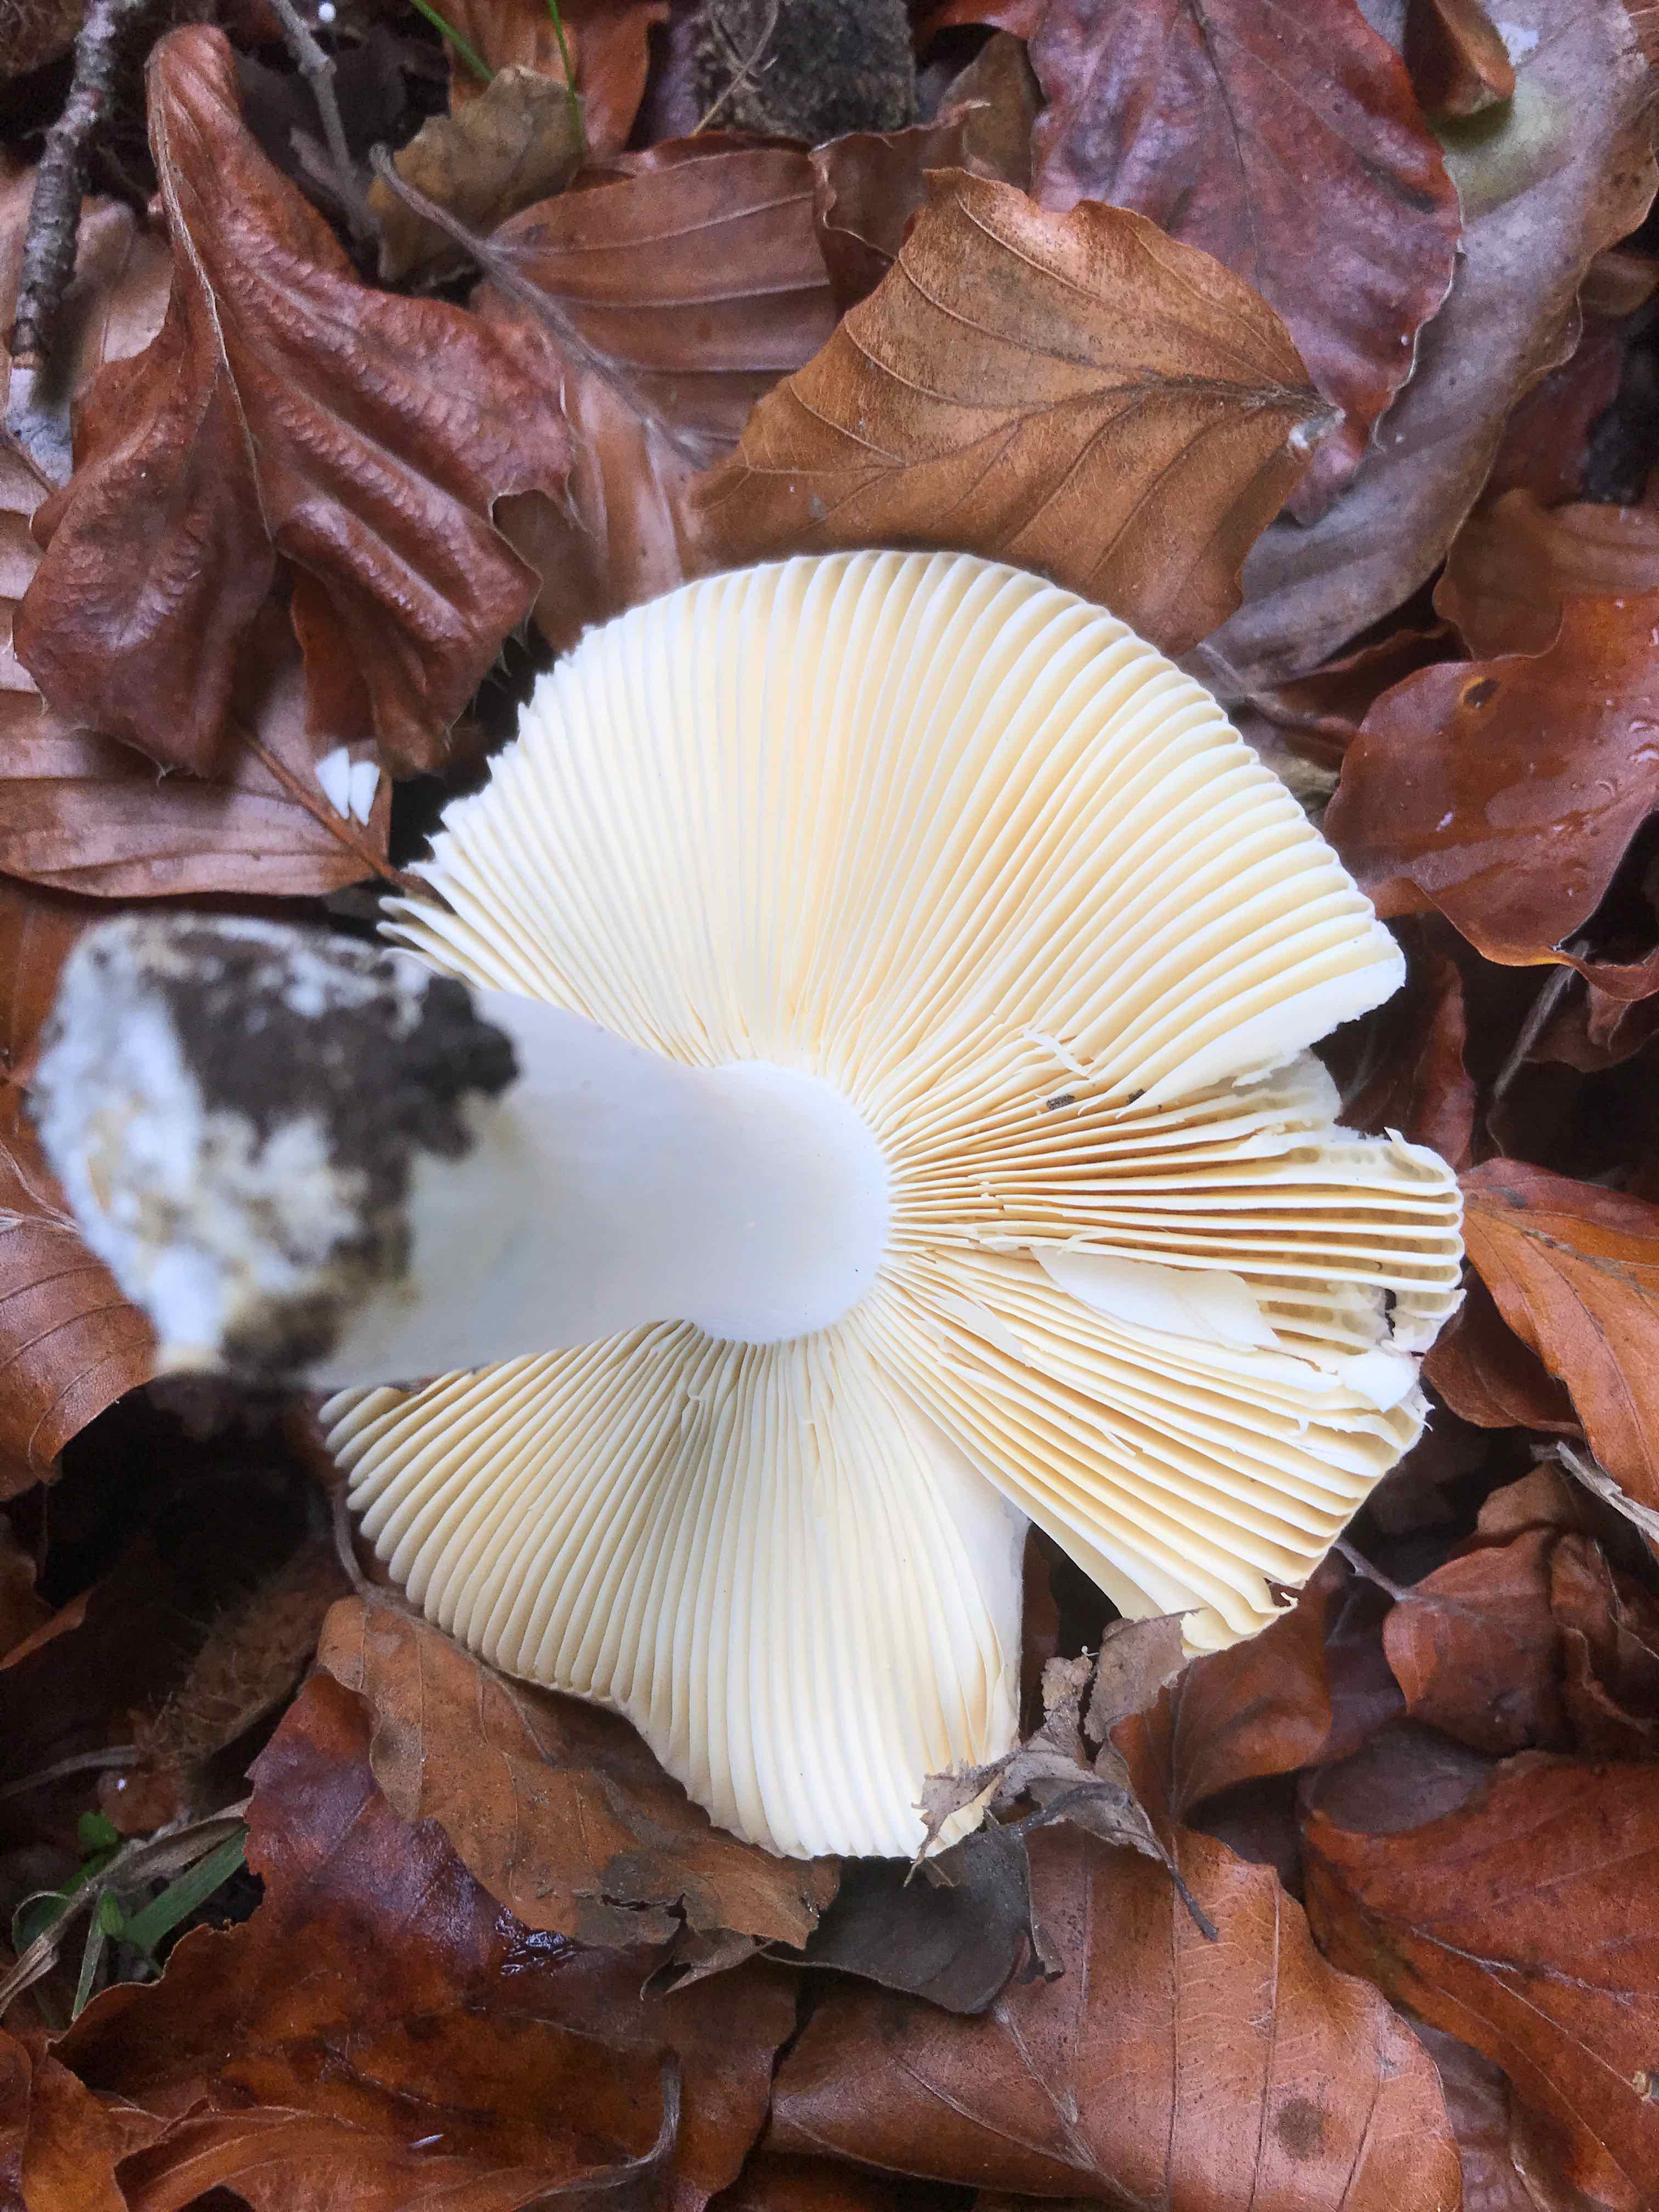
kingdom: Fungi
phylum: Basidiomycota
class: Agaricomycetes
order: Russulales
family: Russulaceae
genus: Russula
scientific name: Russula veternosa
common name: blødkødet skørhat
